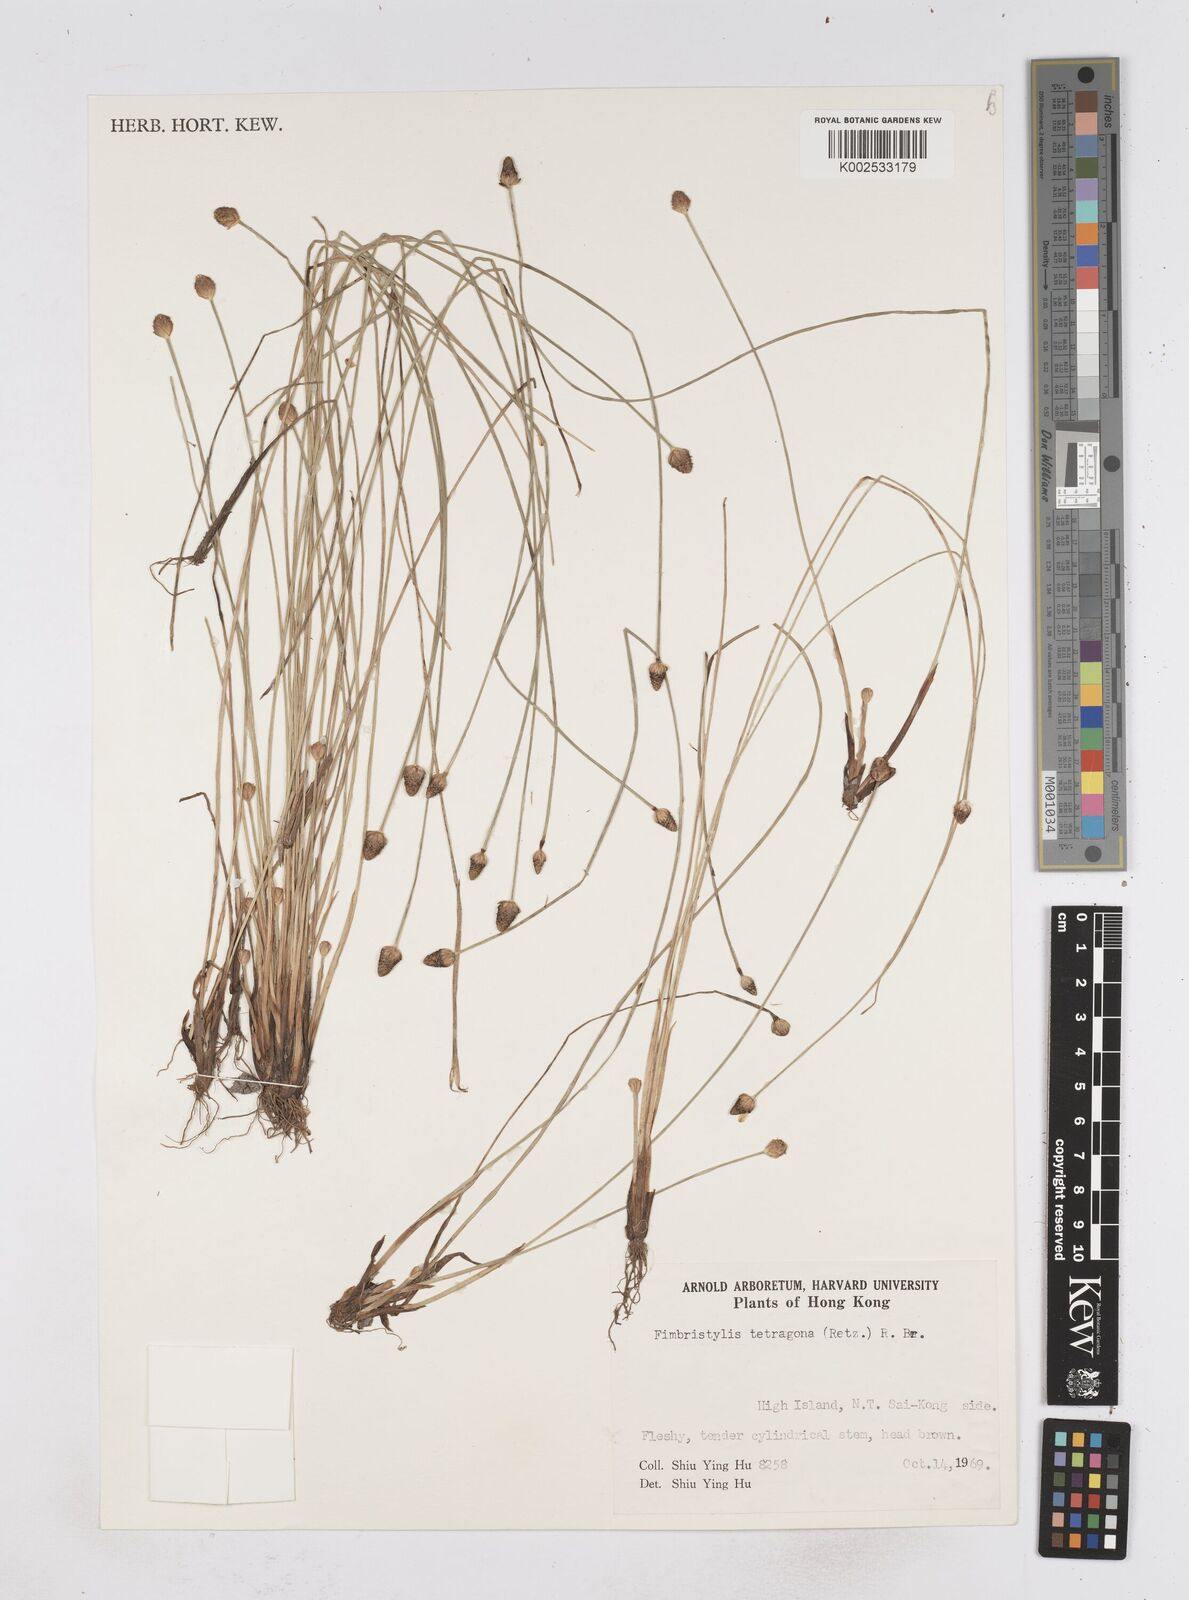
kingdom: Plantae
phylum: Tracheophyta
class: Liliopsida
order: Poales
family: Cyperaceae
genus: Fimbristylis
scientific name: Fimbristylis tetragona
